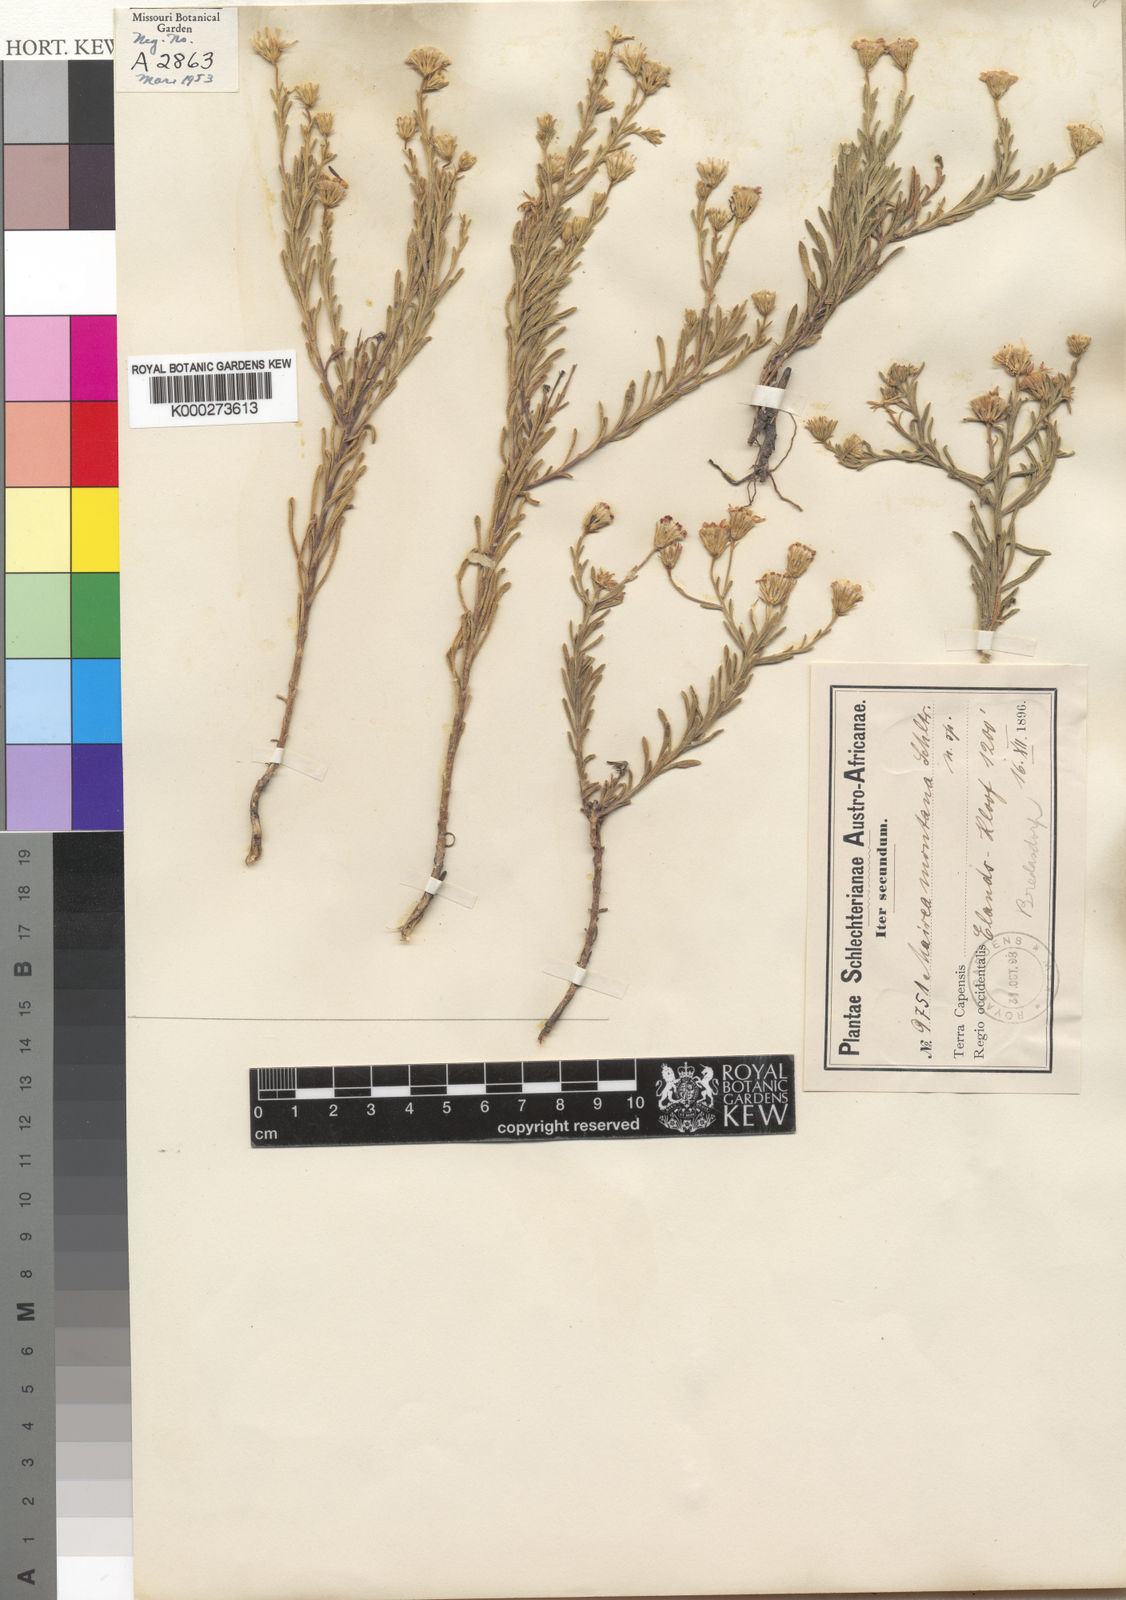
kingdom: Plantae
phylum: Tracheophyta
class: Magnoliopsida
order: Asterales
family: Asteraceae
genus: Zyrphelis
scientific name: Zyrphelis montana
